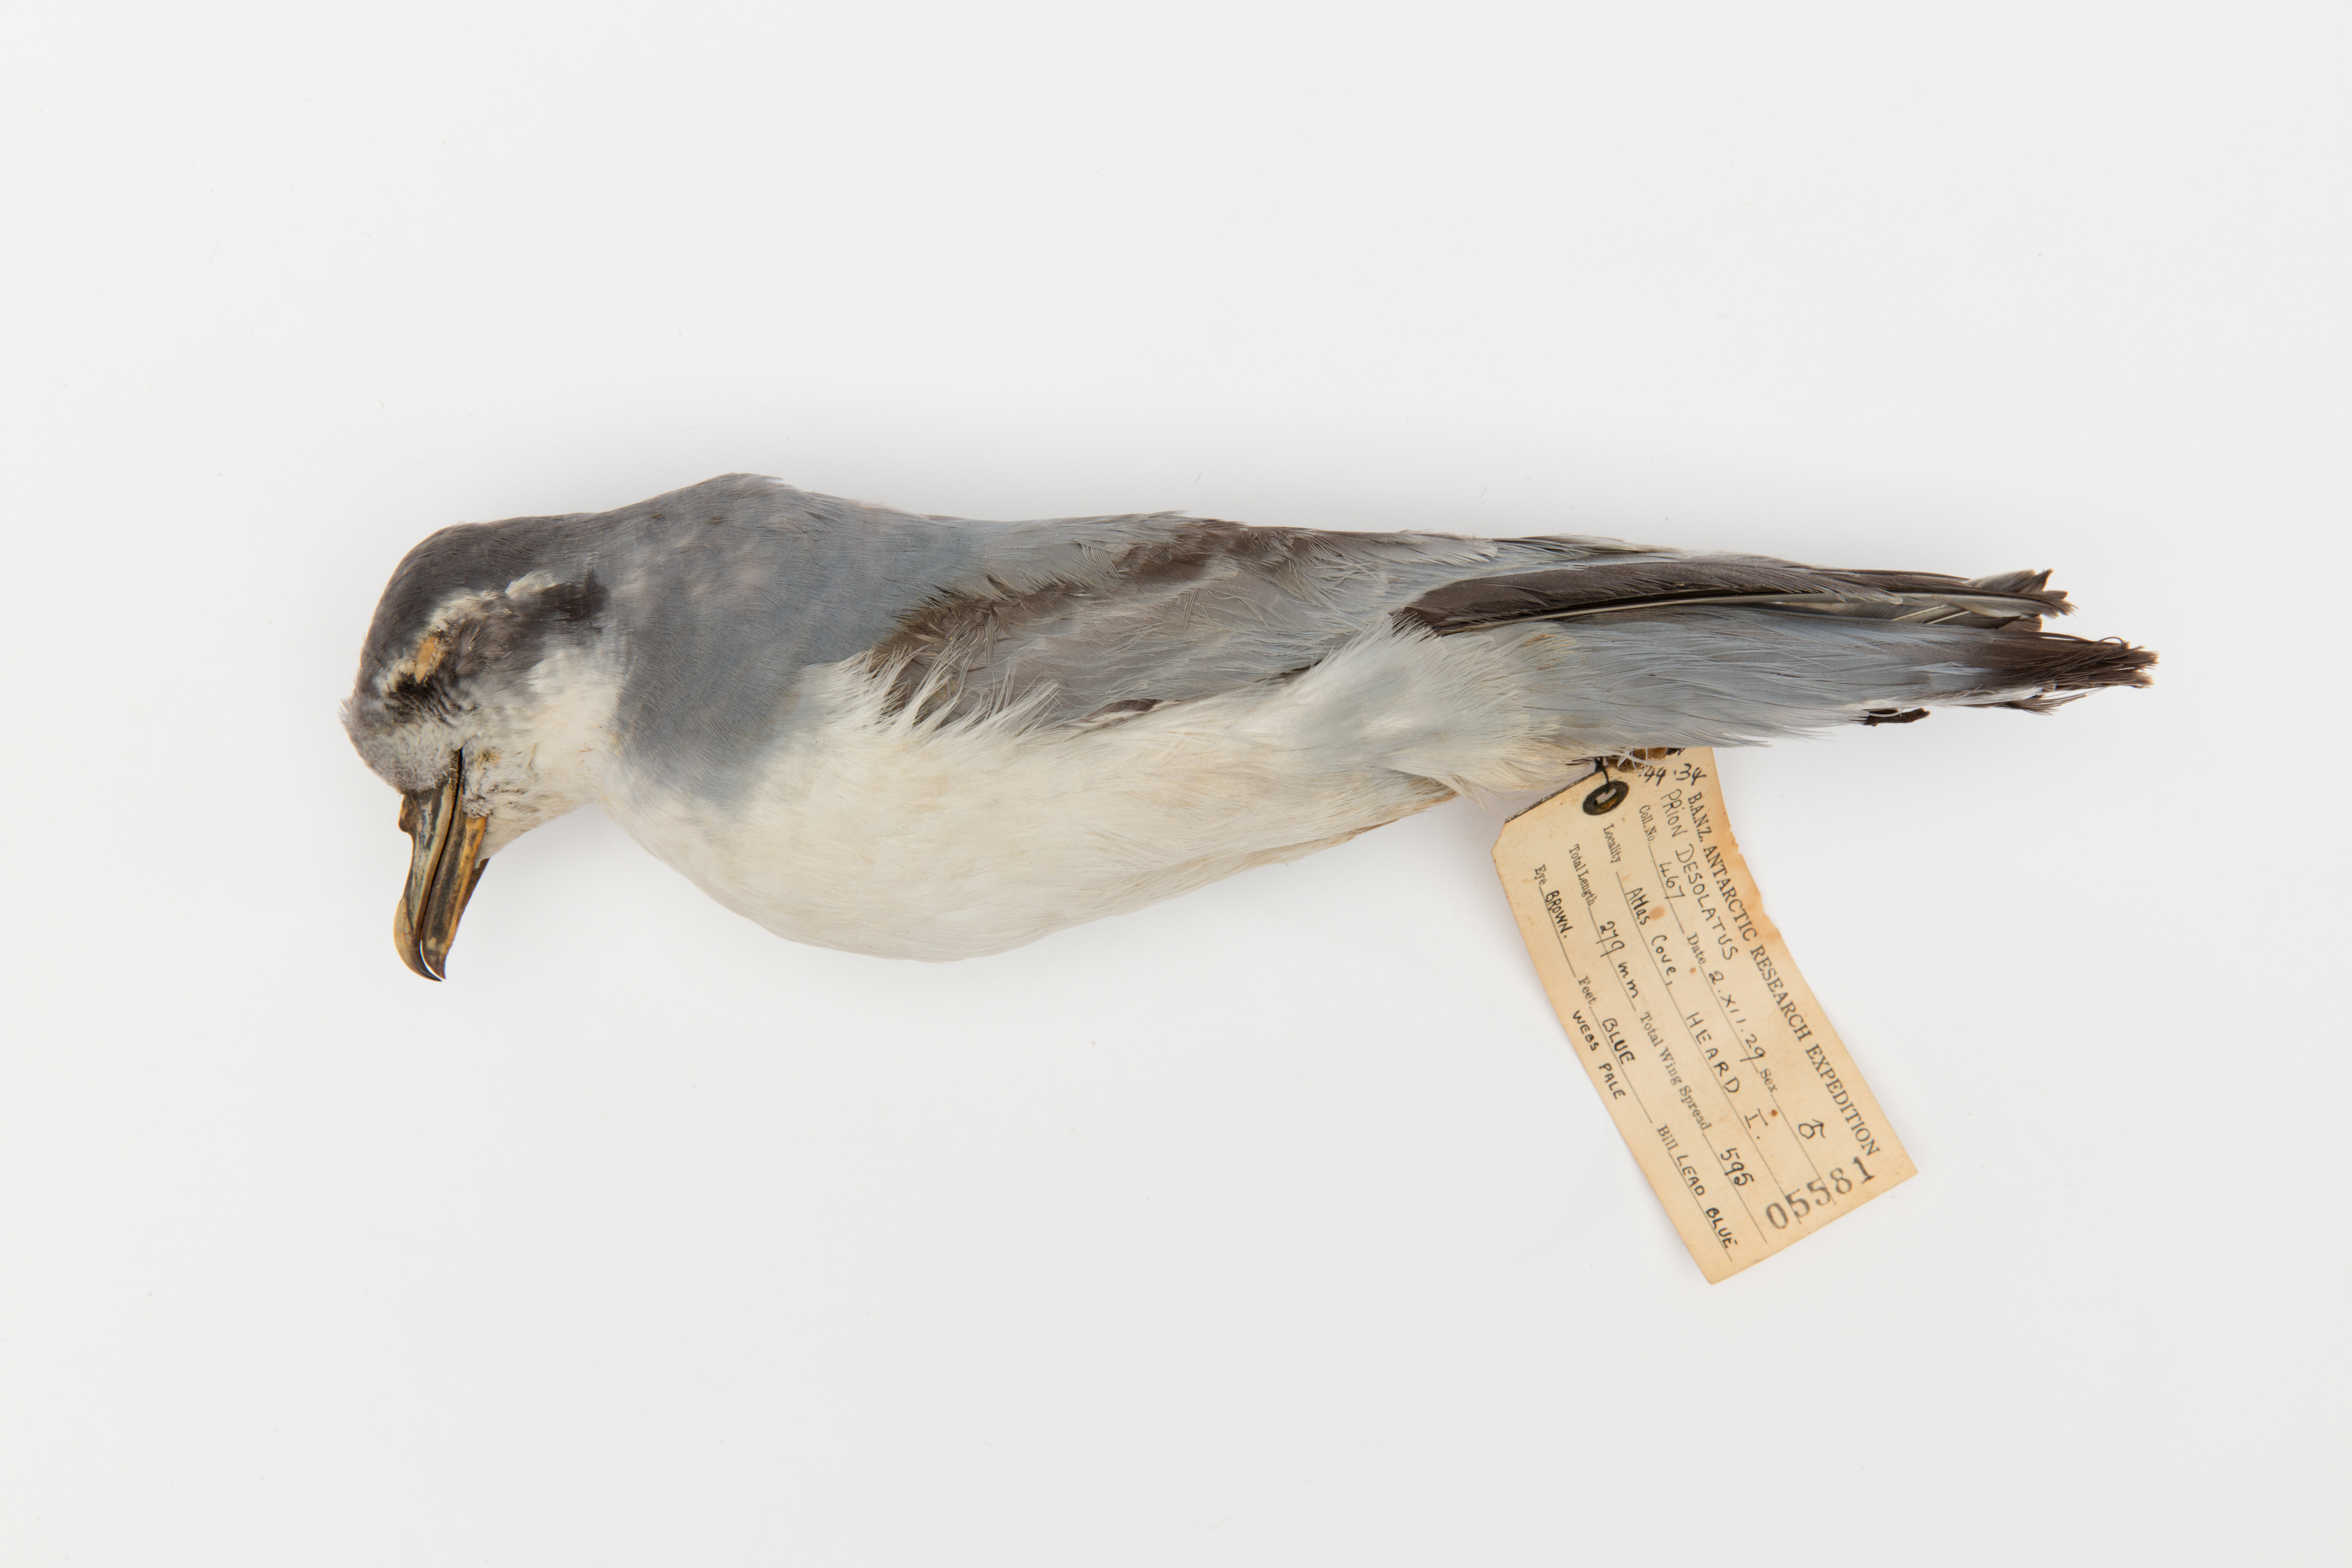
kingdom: Animalia
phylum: Chordata
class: Aves
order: Procellariiformes
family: Procellariidae
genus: Pachyptila
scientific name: Pachyptila desolata
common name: Antarctic prion
